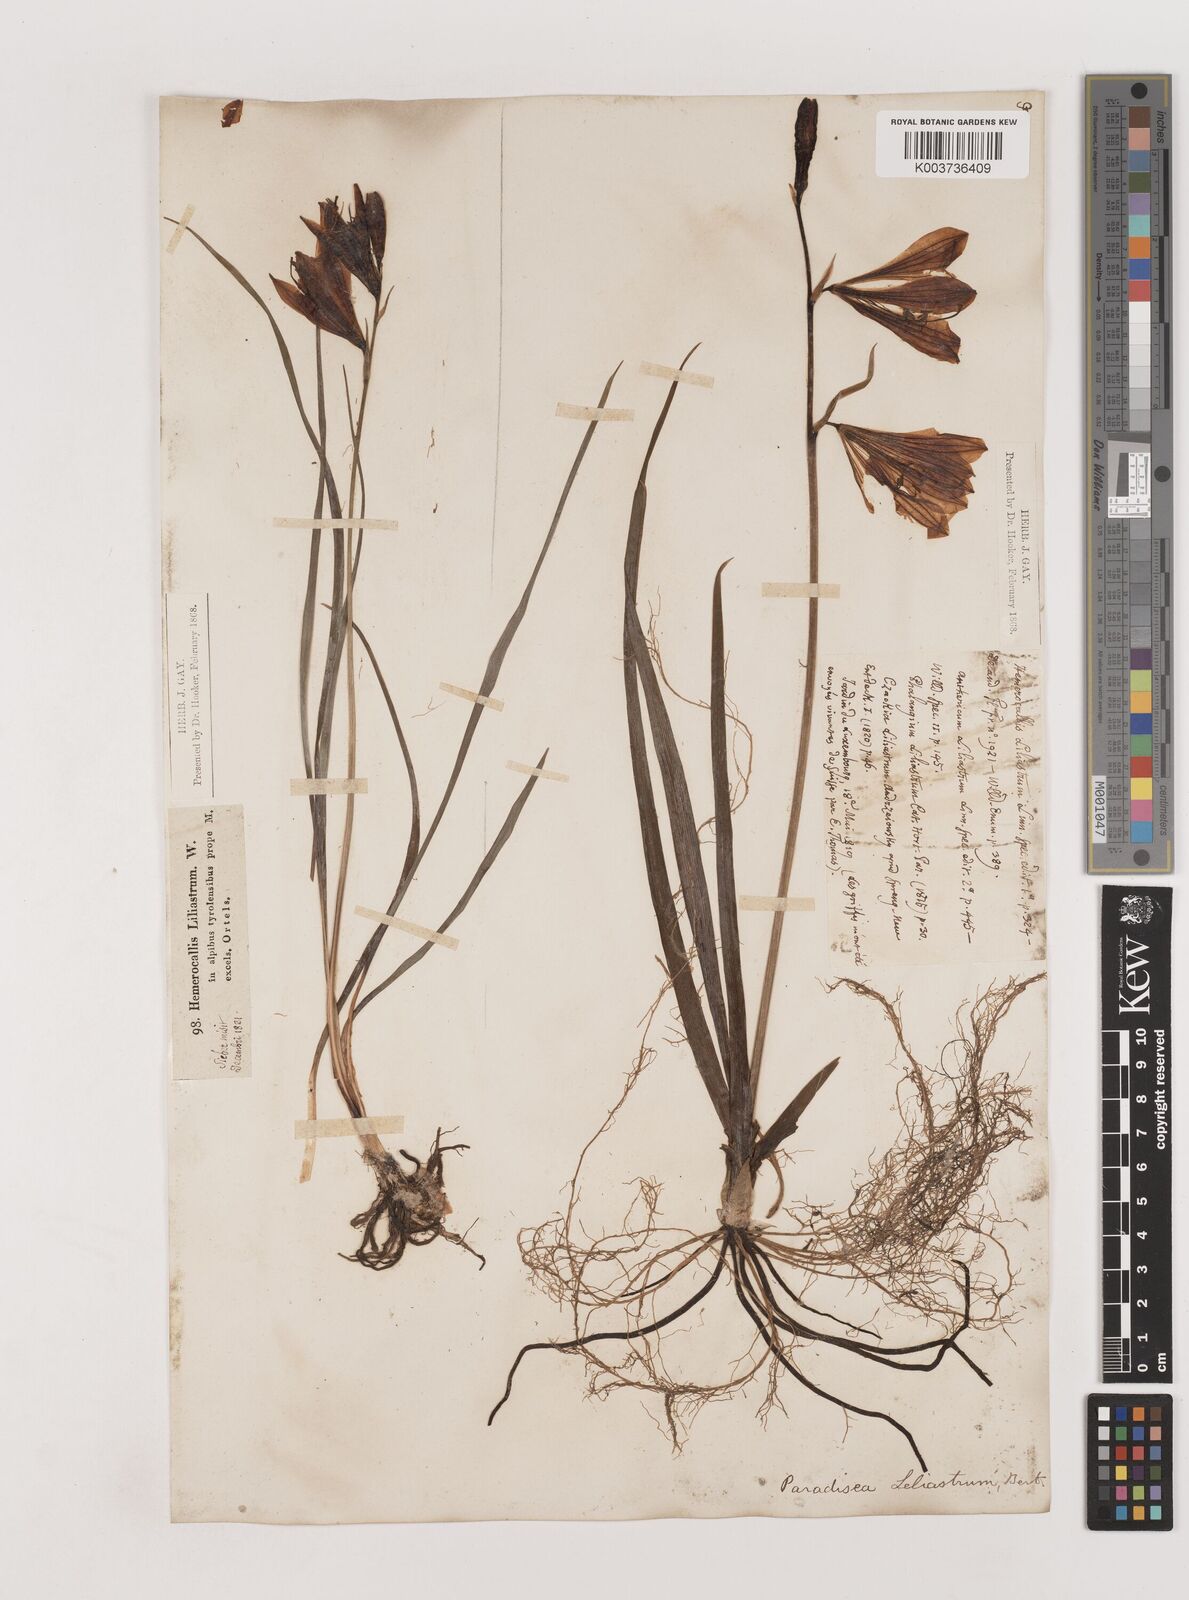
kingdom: Plantae
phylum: Tracheophyta
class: Liliopsida
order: Asparagales
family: Asparagaceae
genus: Paradisea
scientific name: Paradisea liliastrum
